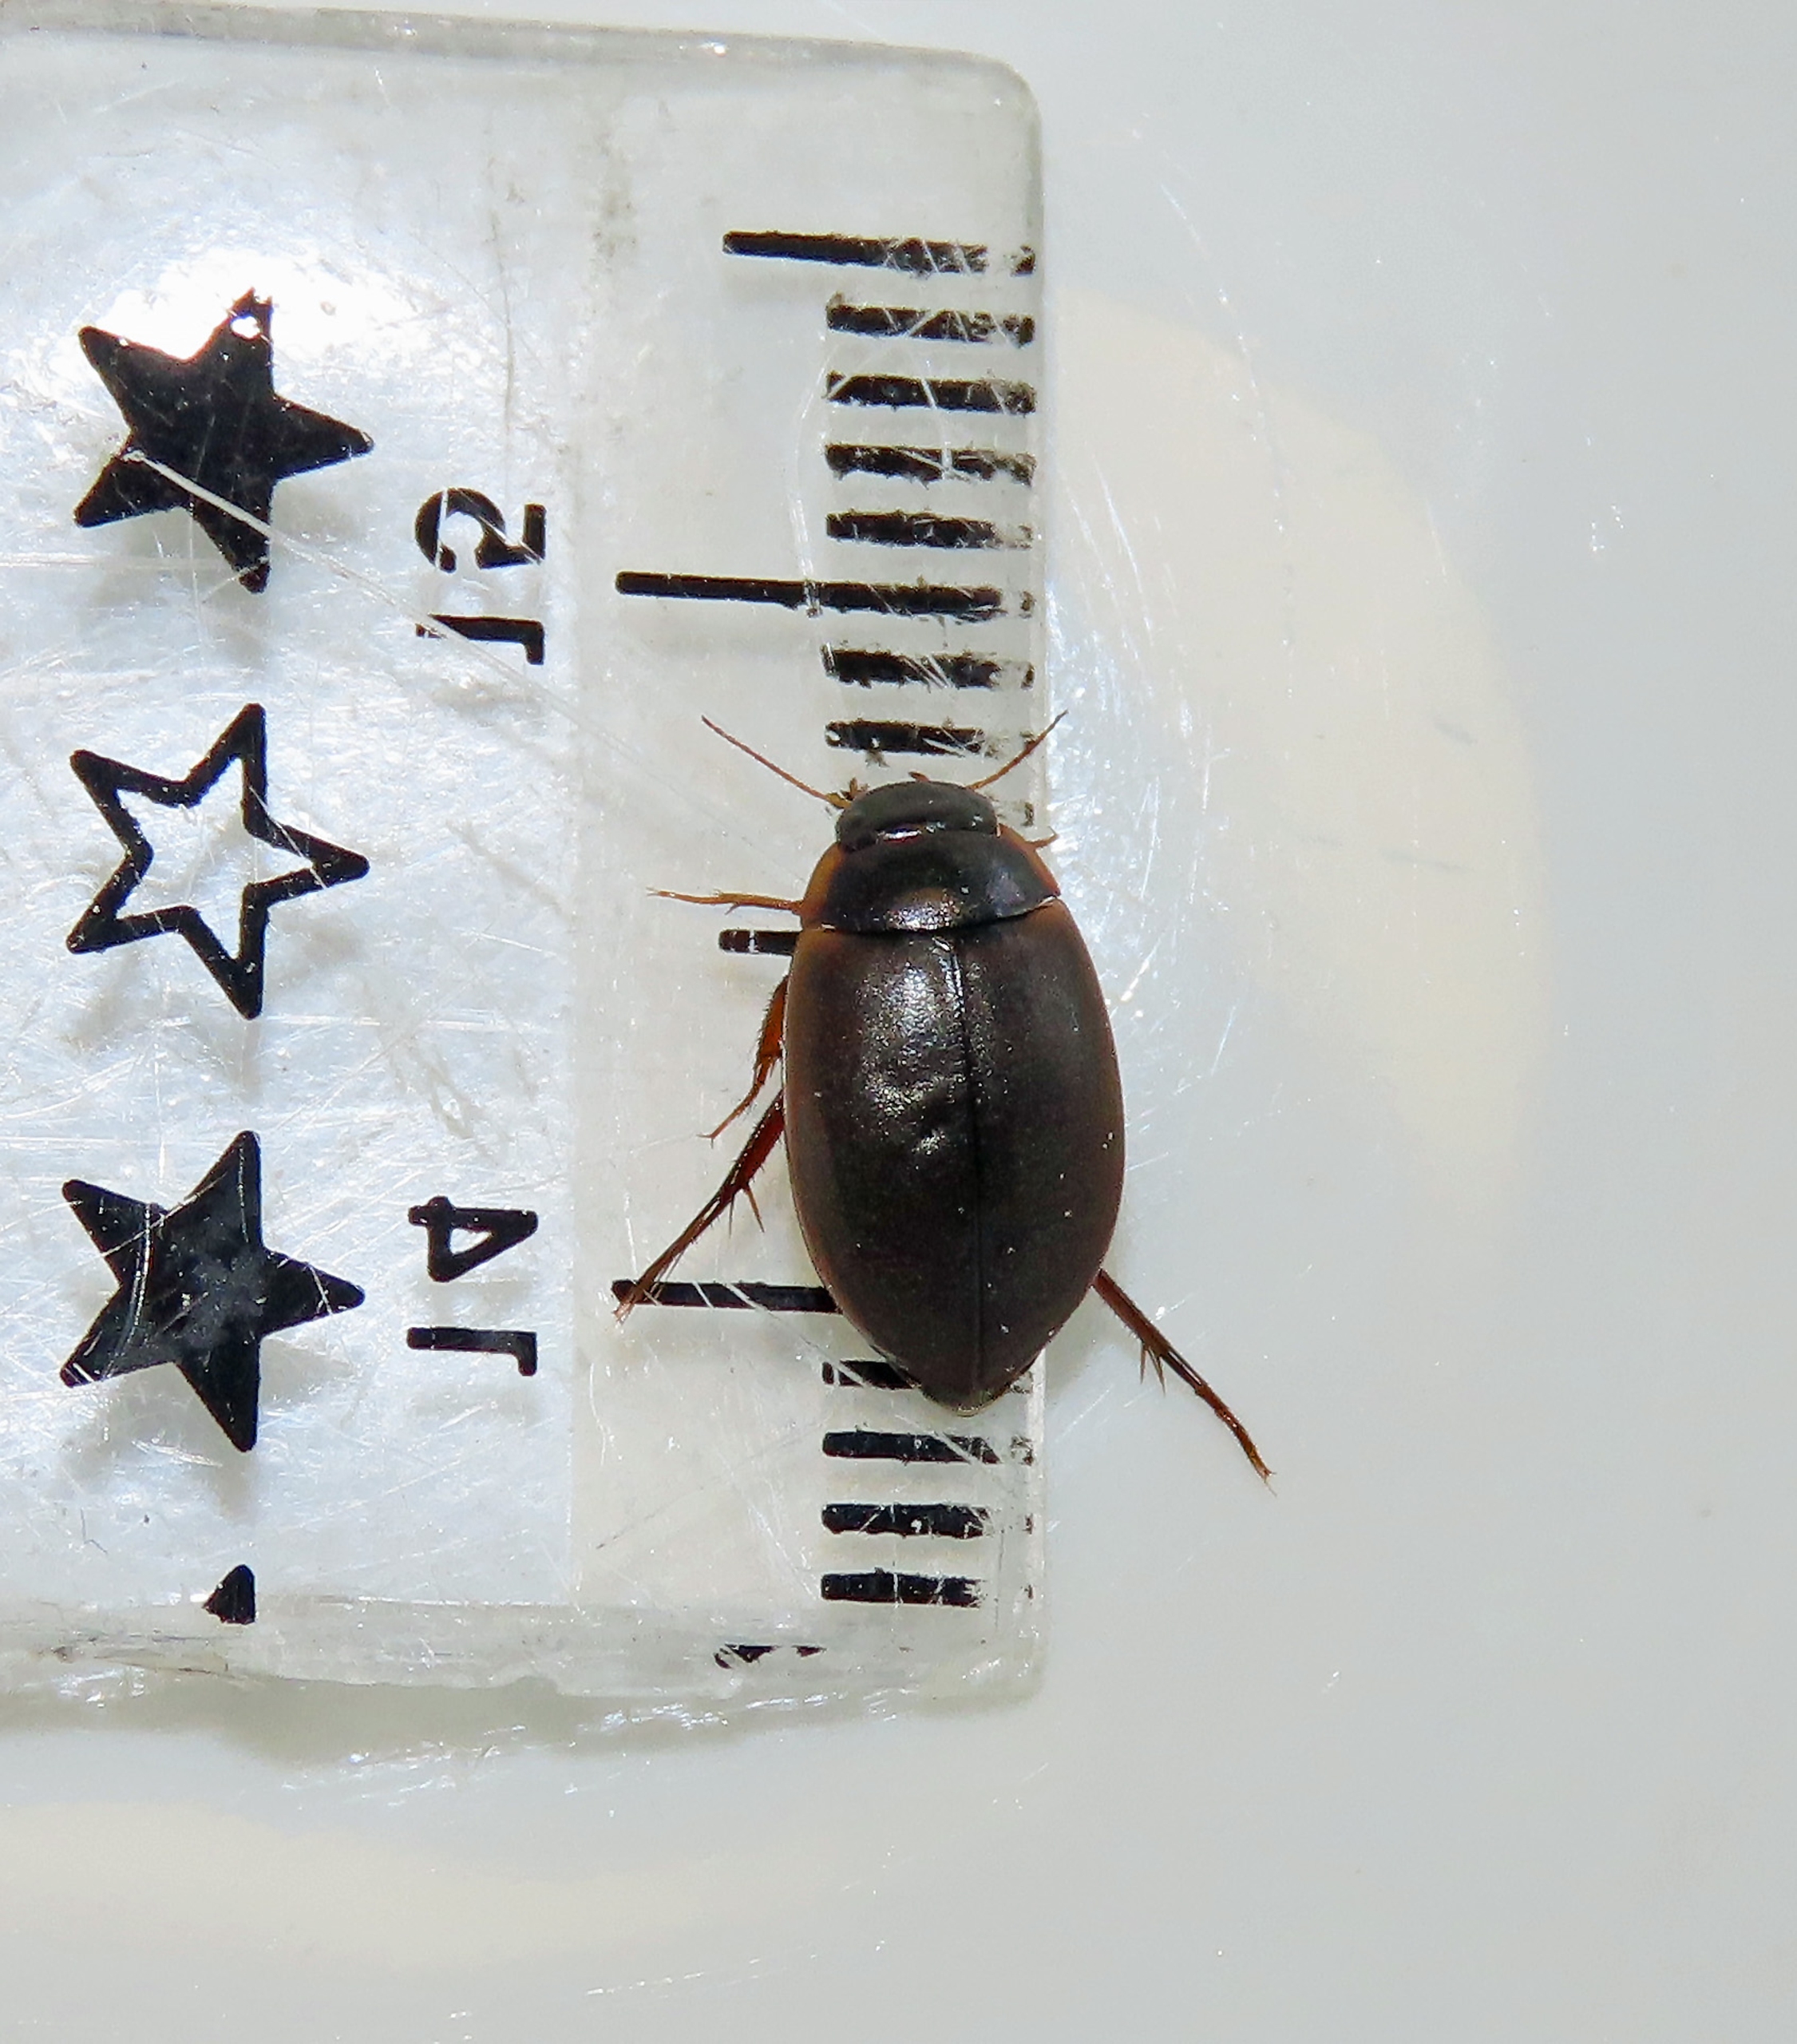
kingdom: Animalia
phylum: Arthropoda
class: Insecta
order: Coleoptera
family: Dytiscidae
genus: Agabus
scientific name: Agabus sturmii
